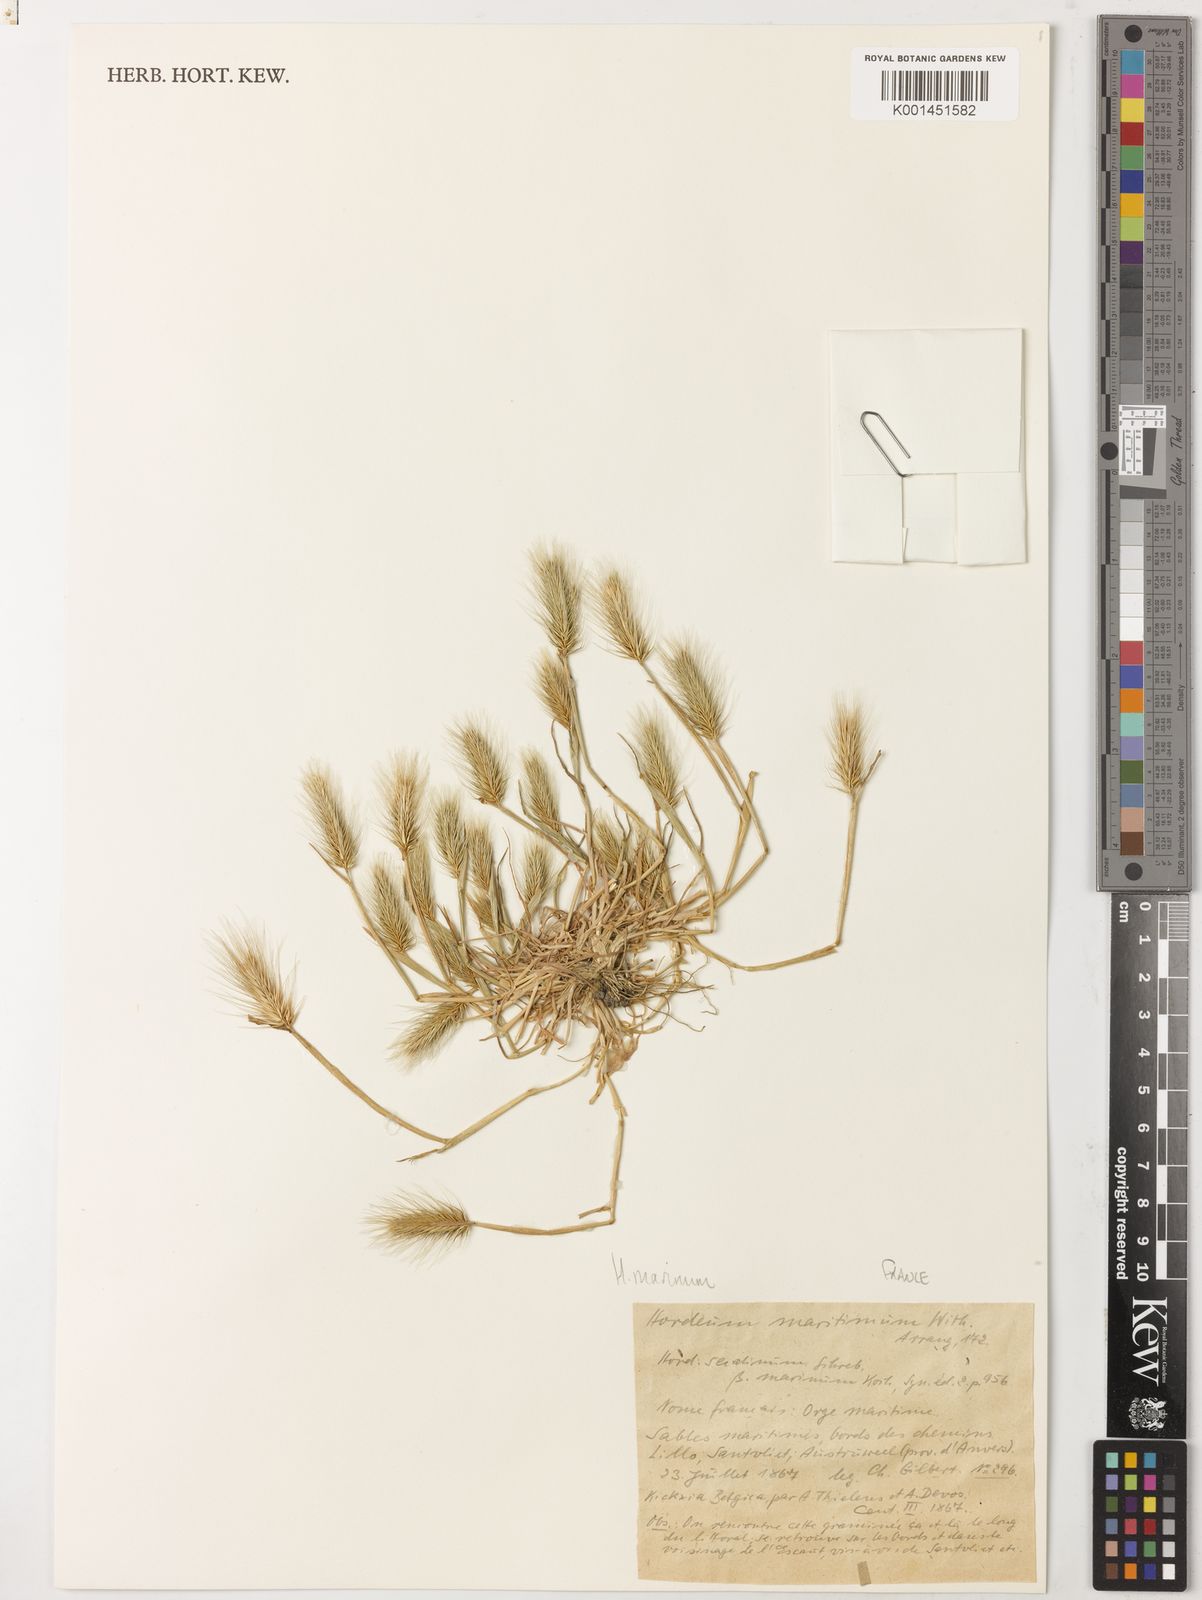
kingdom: Plantae
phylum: Tracheophyta
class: Liliopsida
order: Poales
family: Poaceae
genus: Hordeum
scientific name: Hordeum marinum
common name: Sea barley
